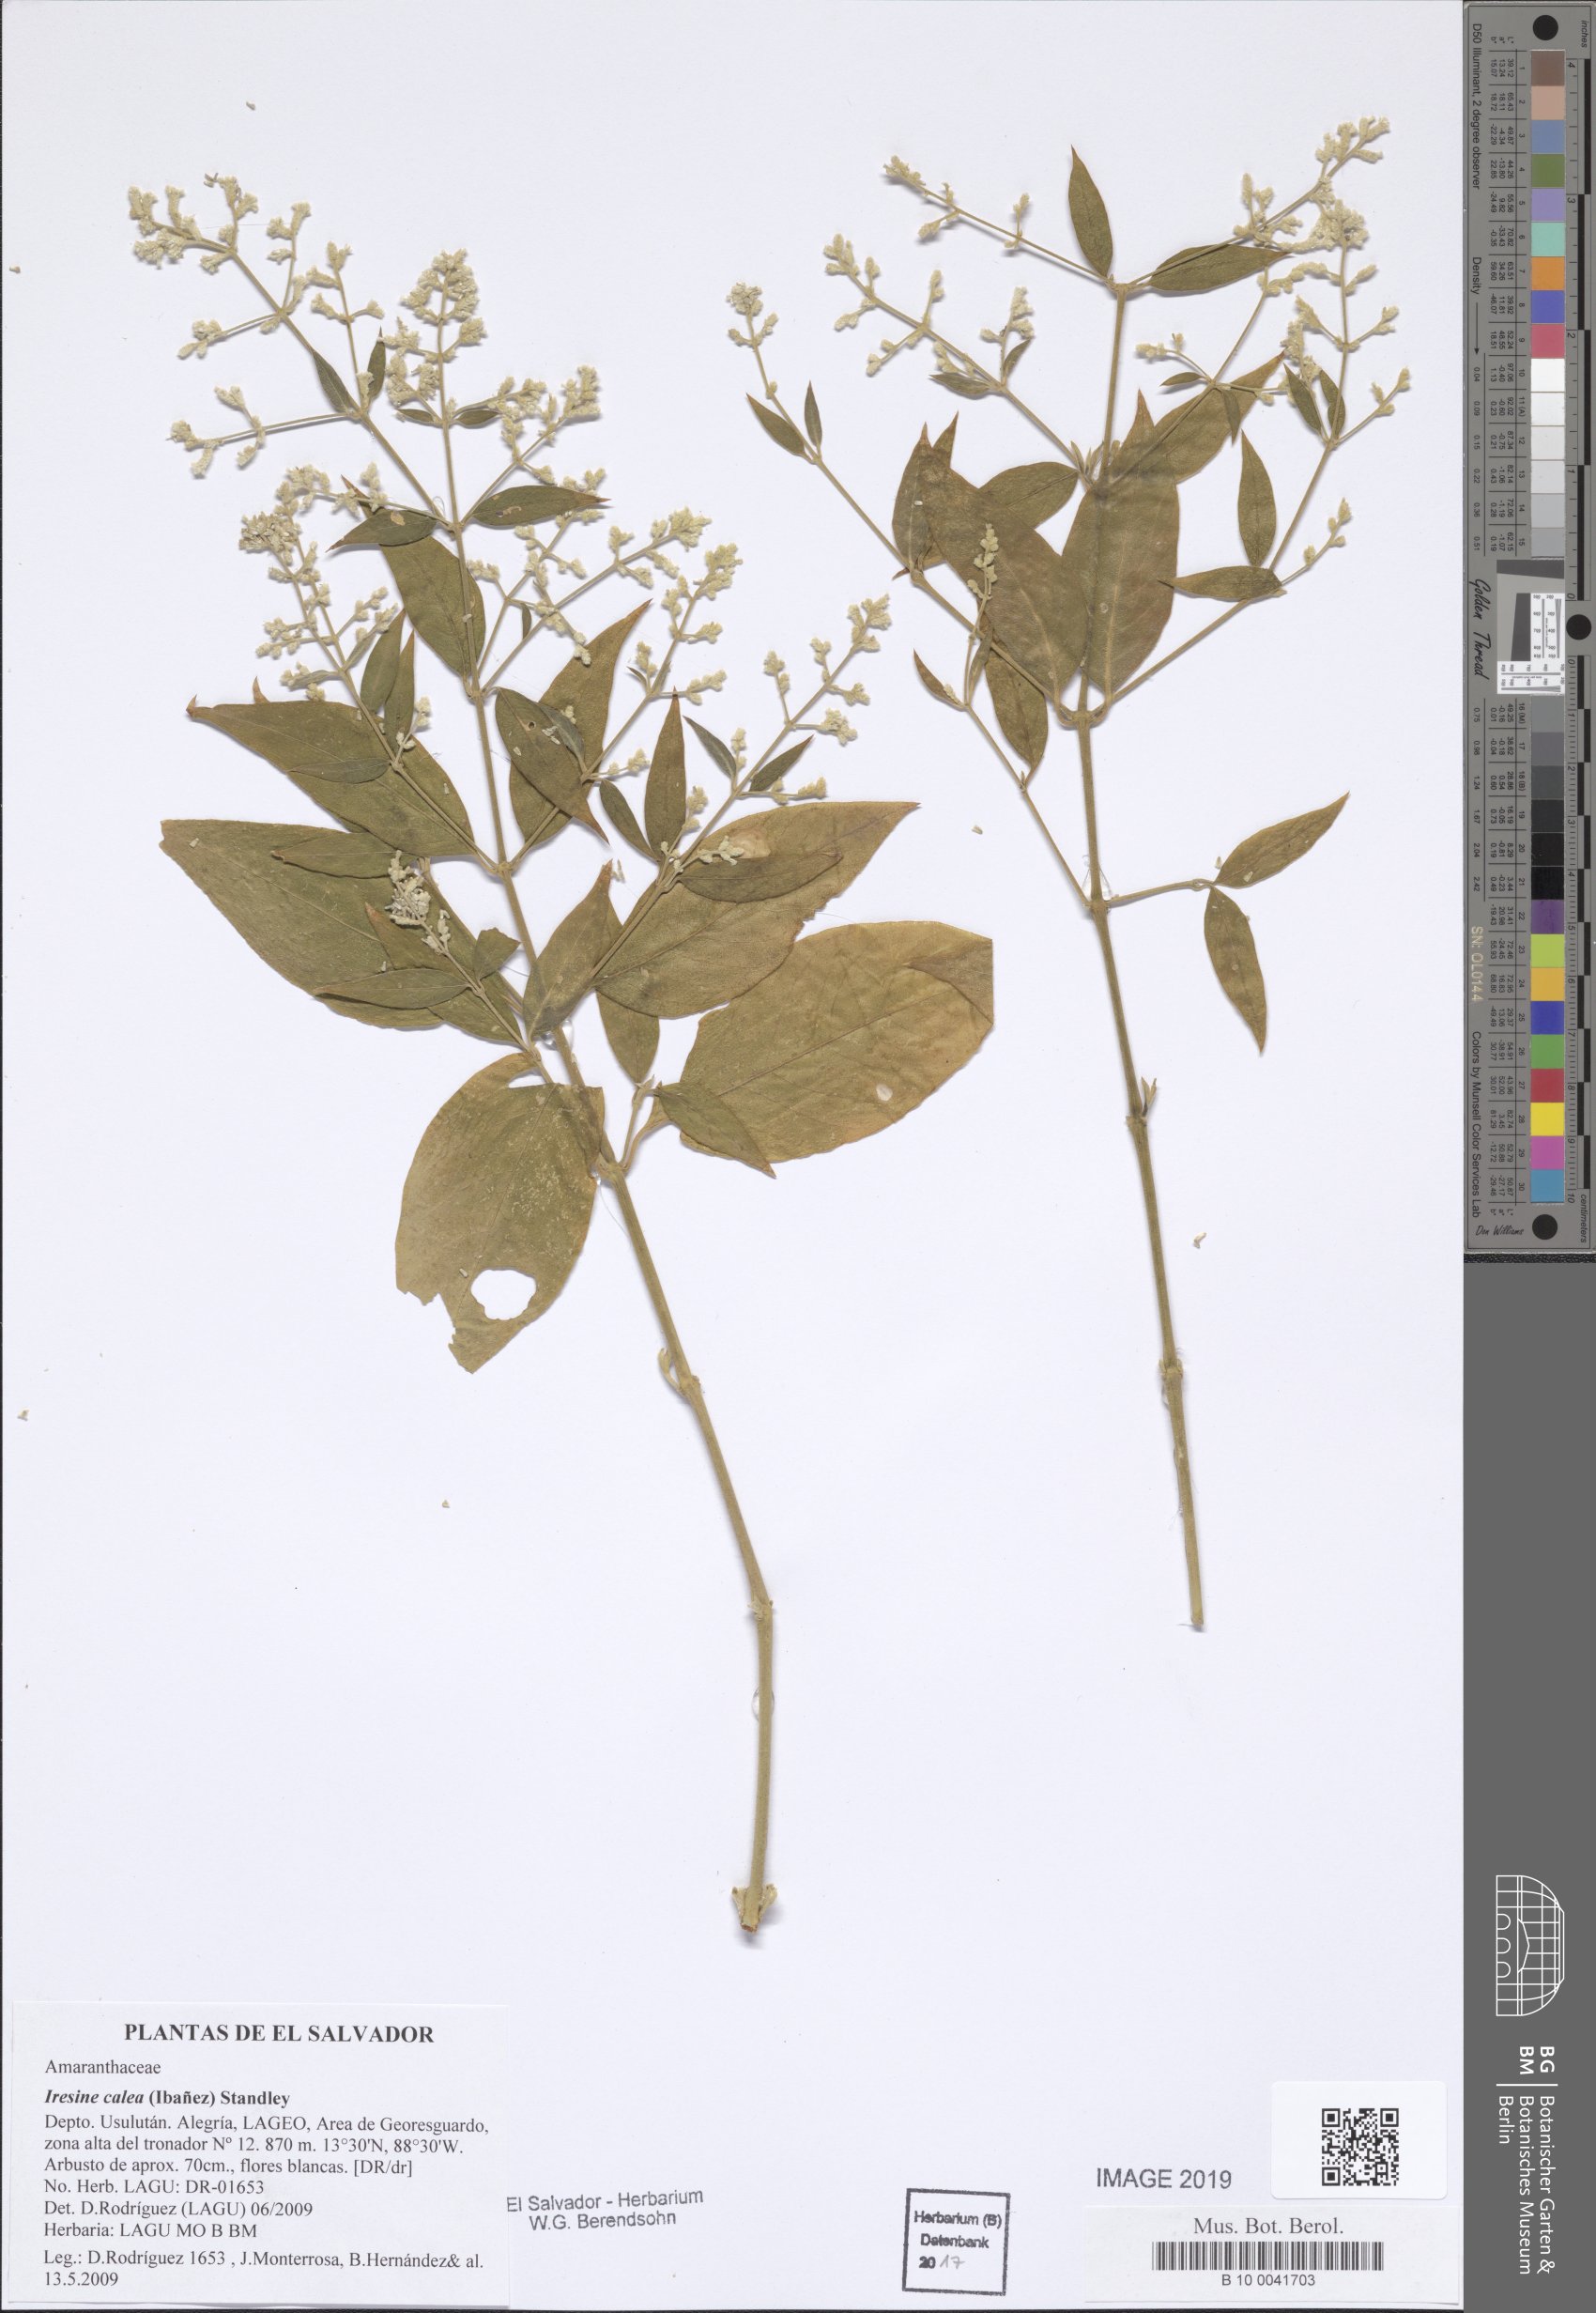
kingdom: Plantae
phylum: Tracheophyta
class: Magnoliopsida
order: Caryophyllales
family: Amaranthaceae
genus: Iresine
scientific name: Iresine latifolia
